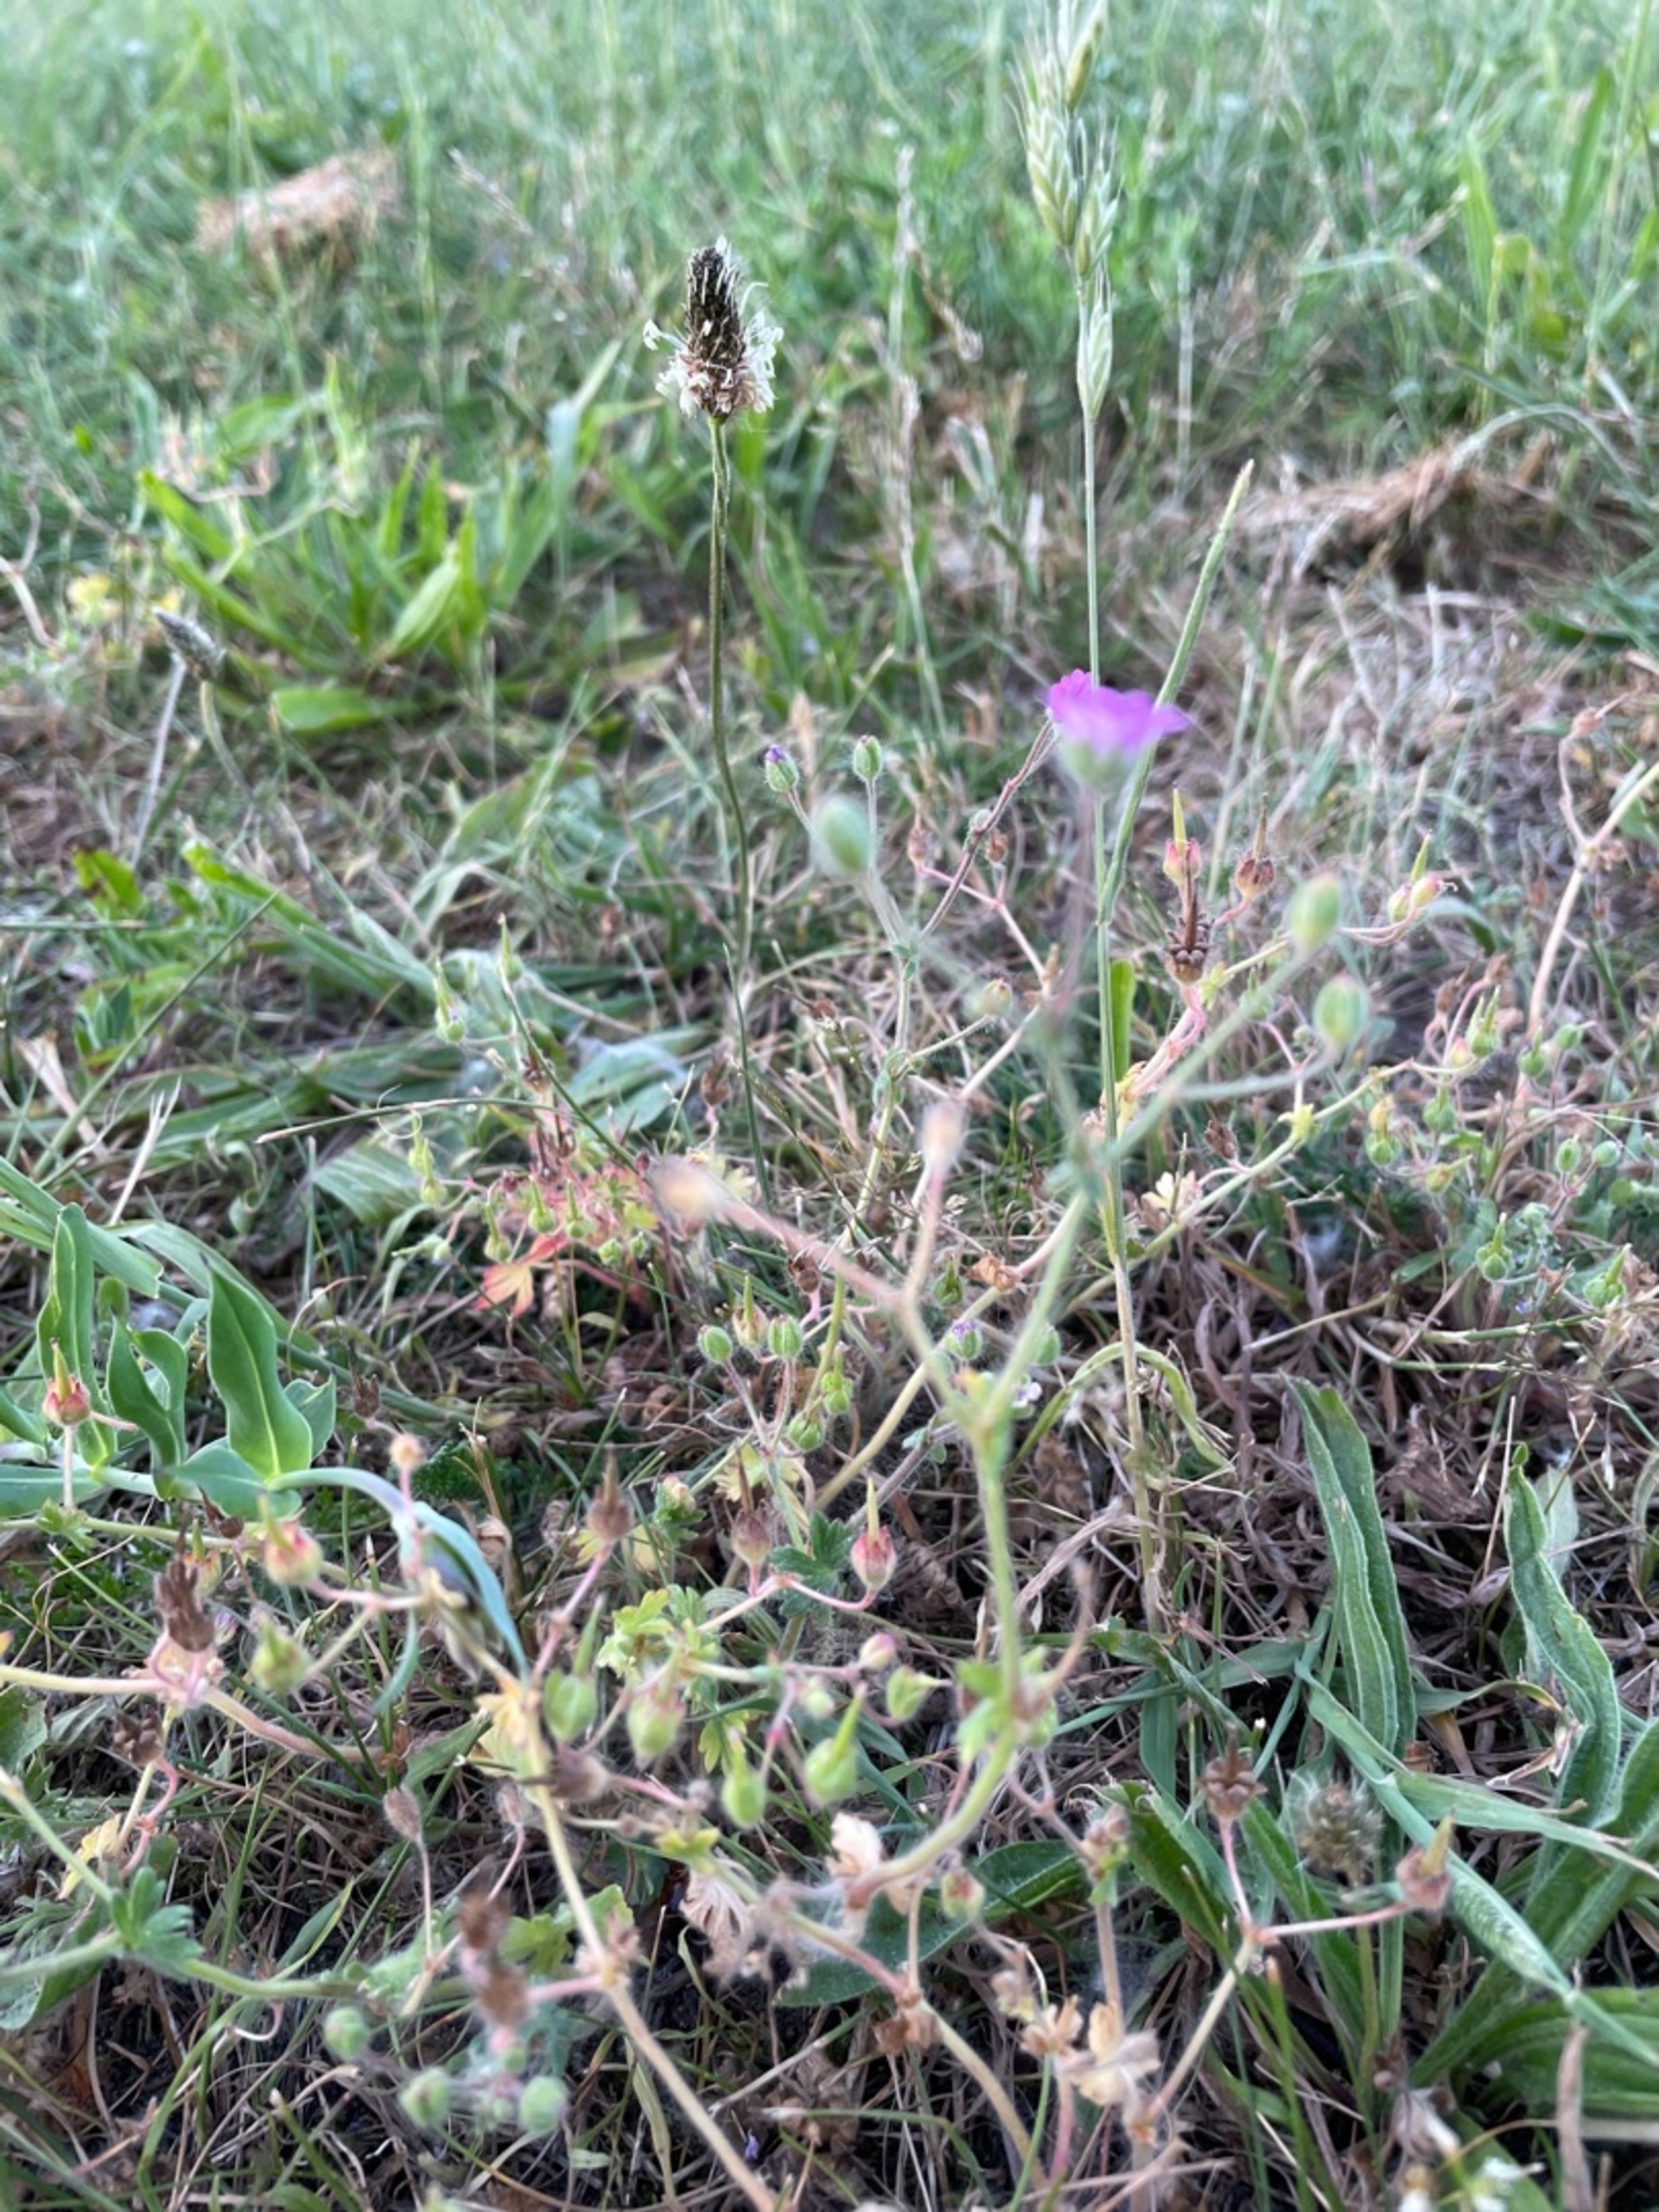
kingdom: Plantae
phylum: Tracheophyta
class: Magnoliopsida
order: Geraniales
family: Geraniaceae
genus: Geranium
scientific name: Geranium molle
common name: Blød storkenæb
